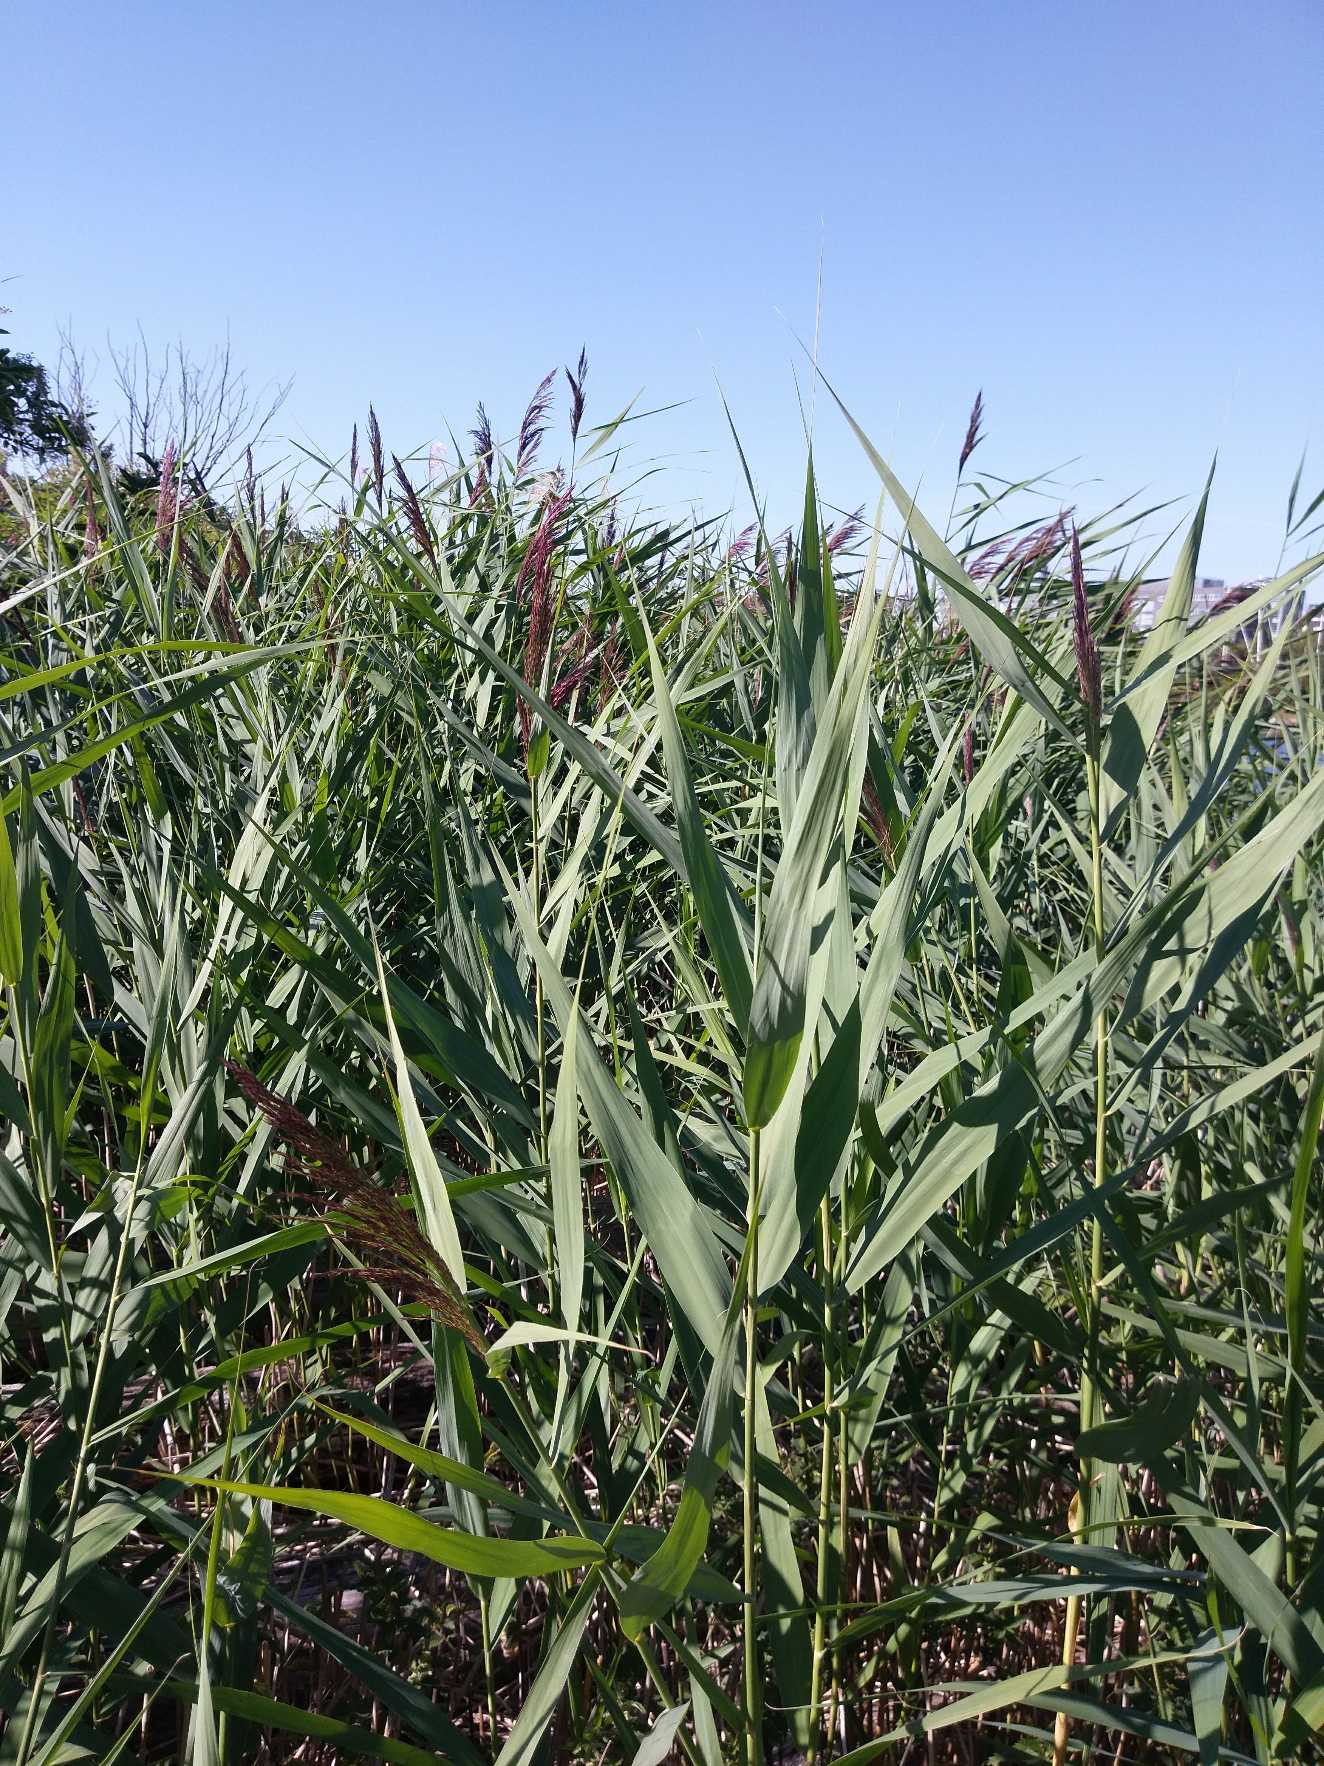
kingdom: Plantae
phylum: Tracheophyta
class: Liliopsida
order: Poales
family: Poaceae
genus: Phragmites
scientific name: Phragmites australis
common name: Tagrør
